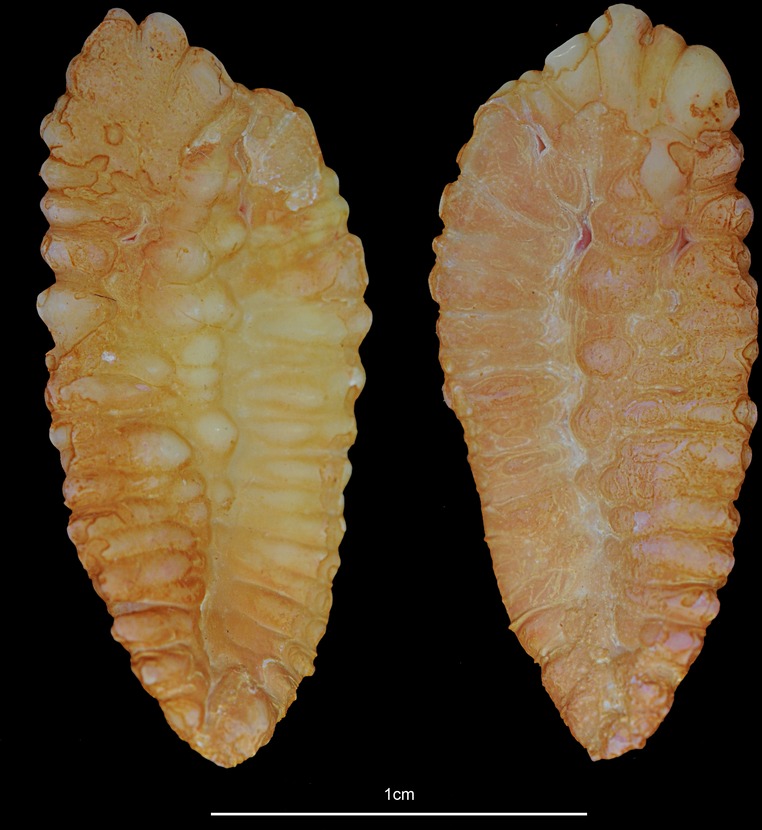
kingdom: Animalia
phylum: Chordata
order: Gadiformes
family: Gadidae
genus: Gadus
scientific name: Gadus morhua
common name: Atlantic cod
